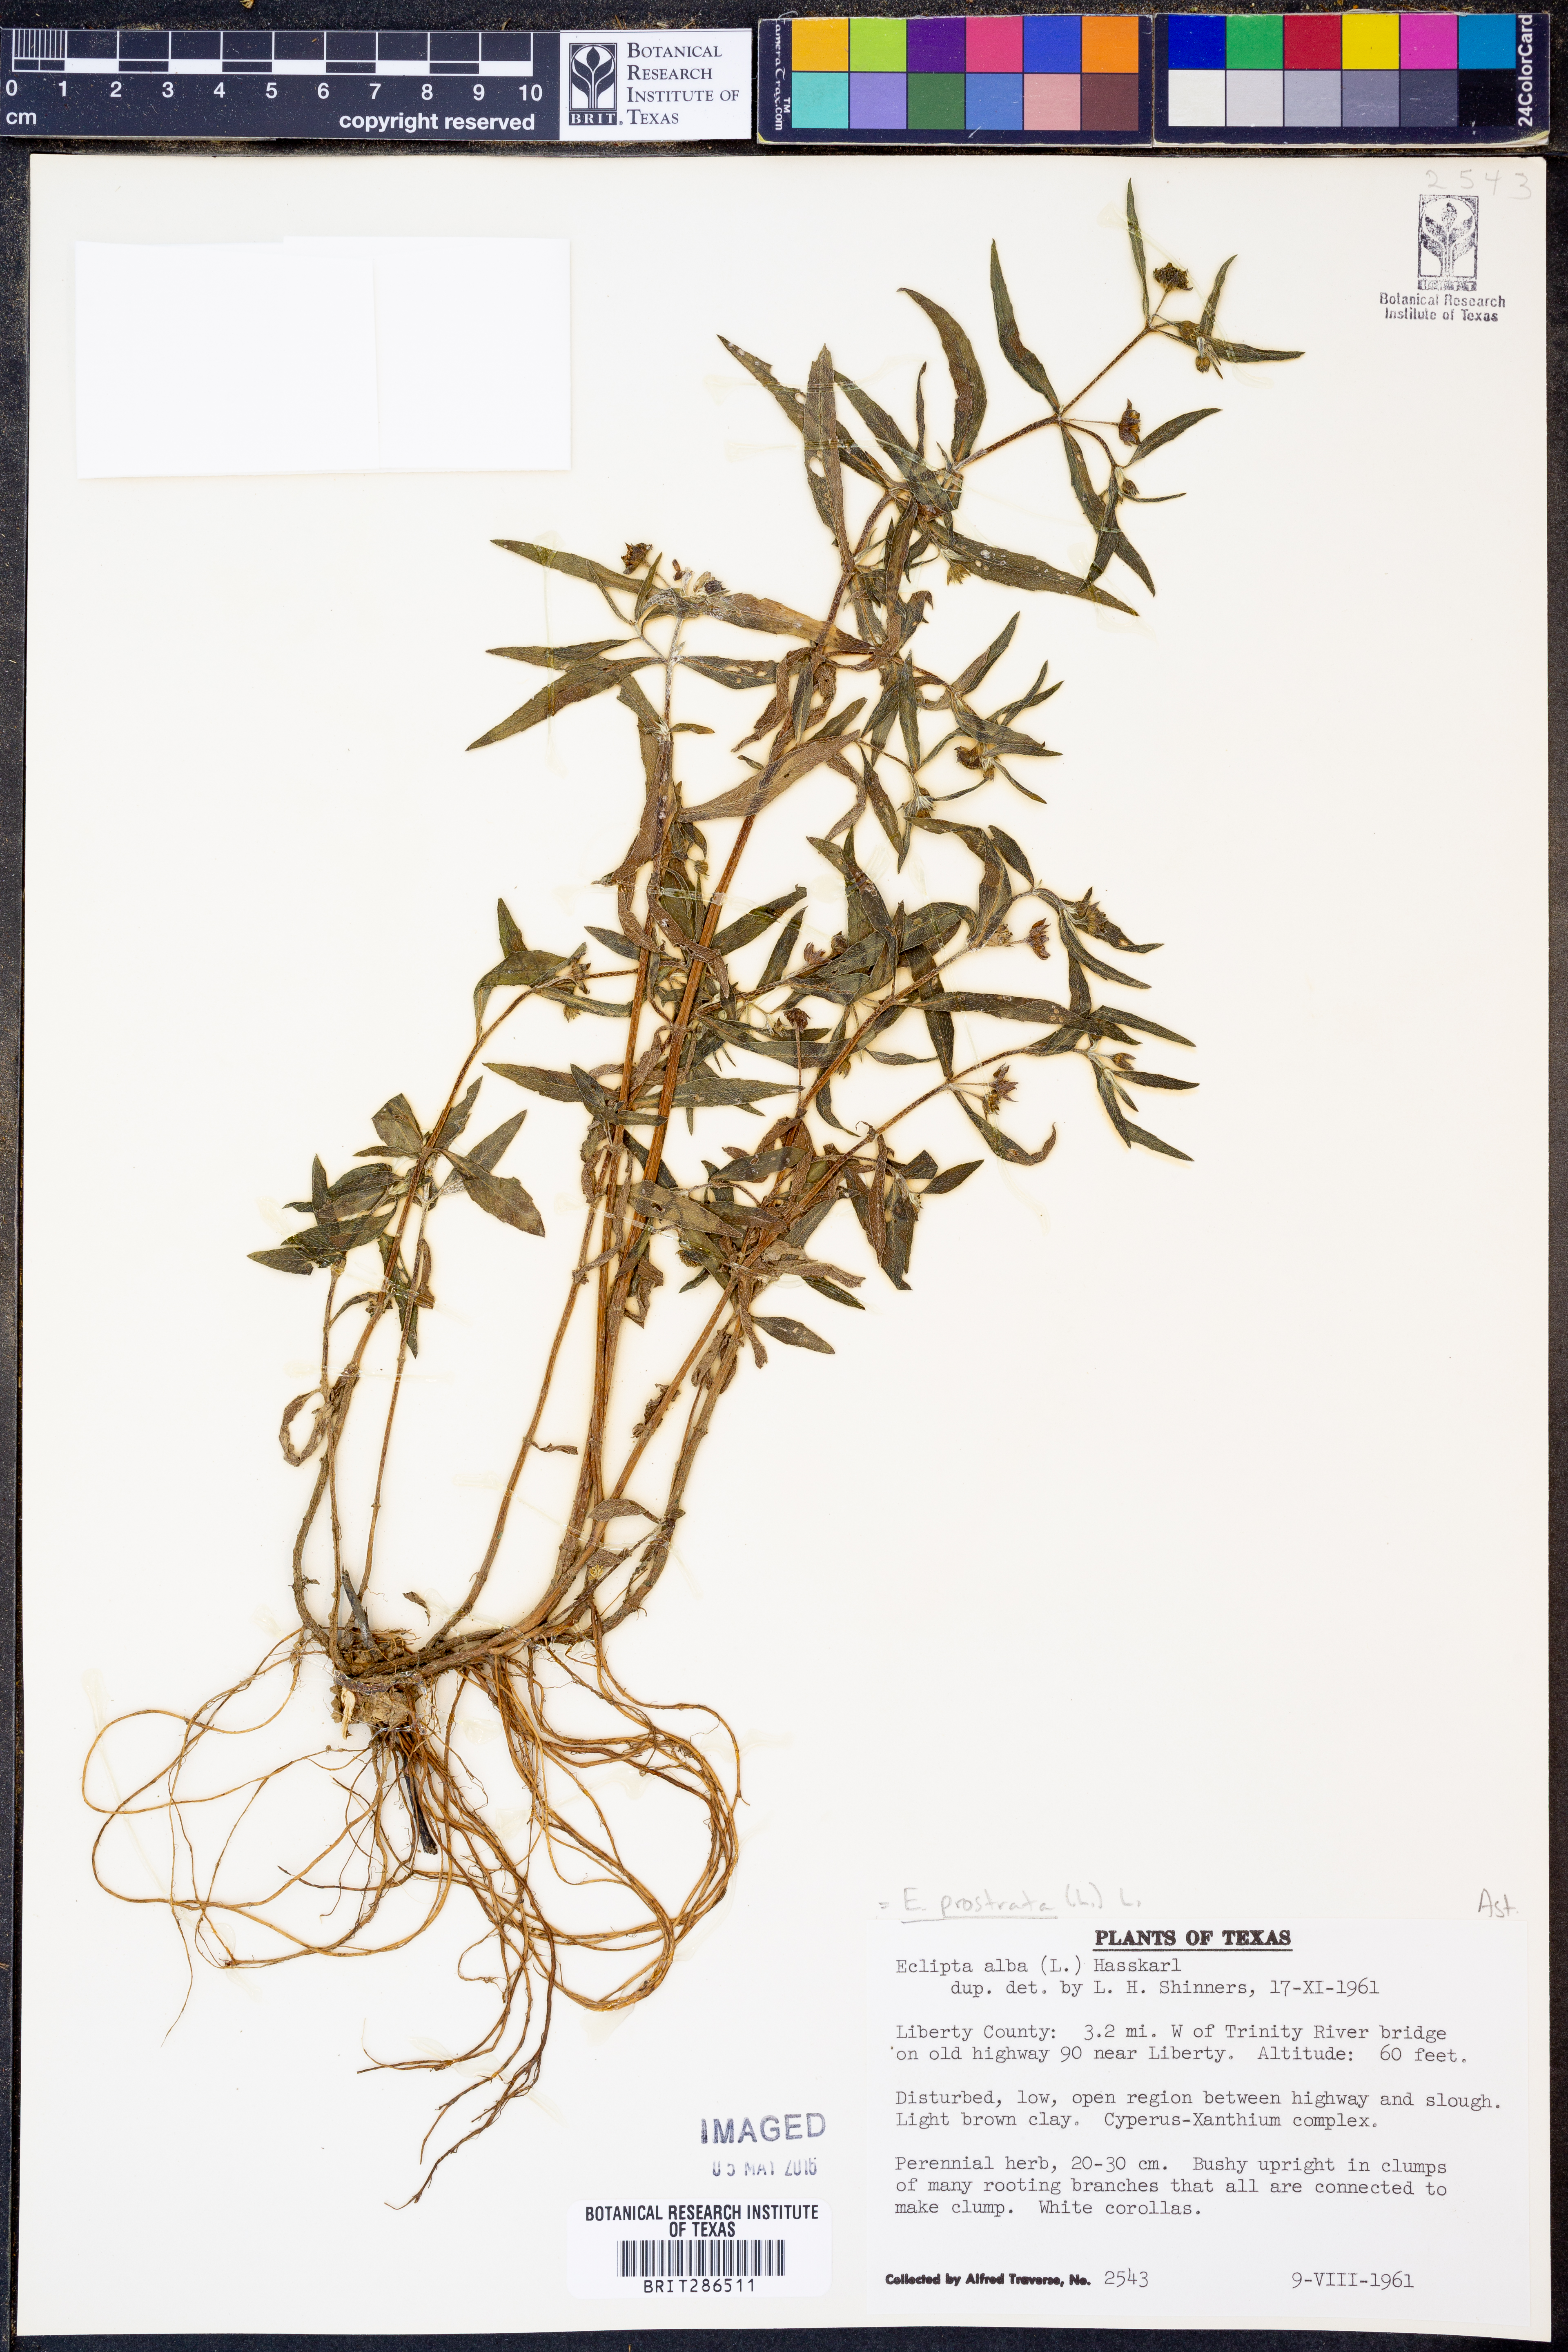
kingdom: Plantae
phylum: Tracheophyta
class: Magnoliopsida
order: Asterales
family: Asteraceae
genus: Eclipta
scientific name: Eclipta prostrata
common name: False daisy
